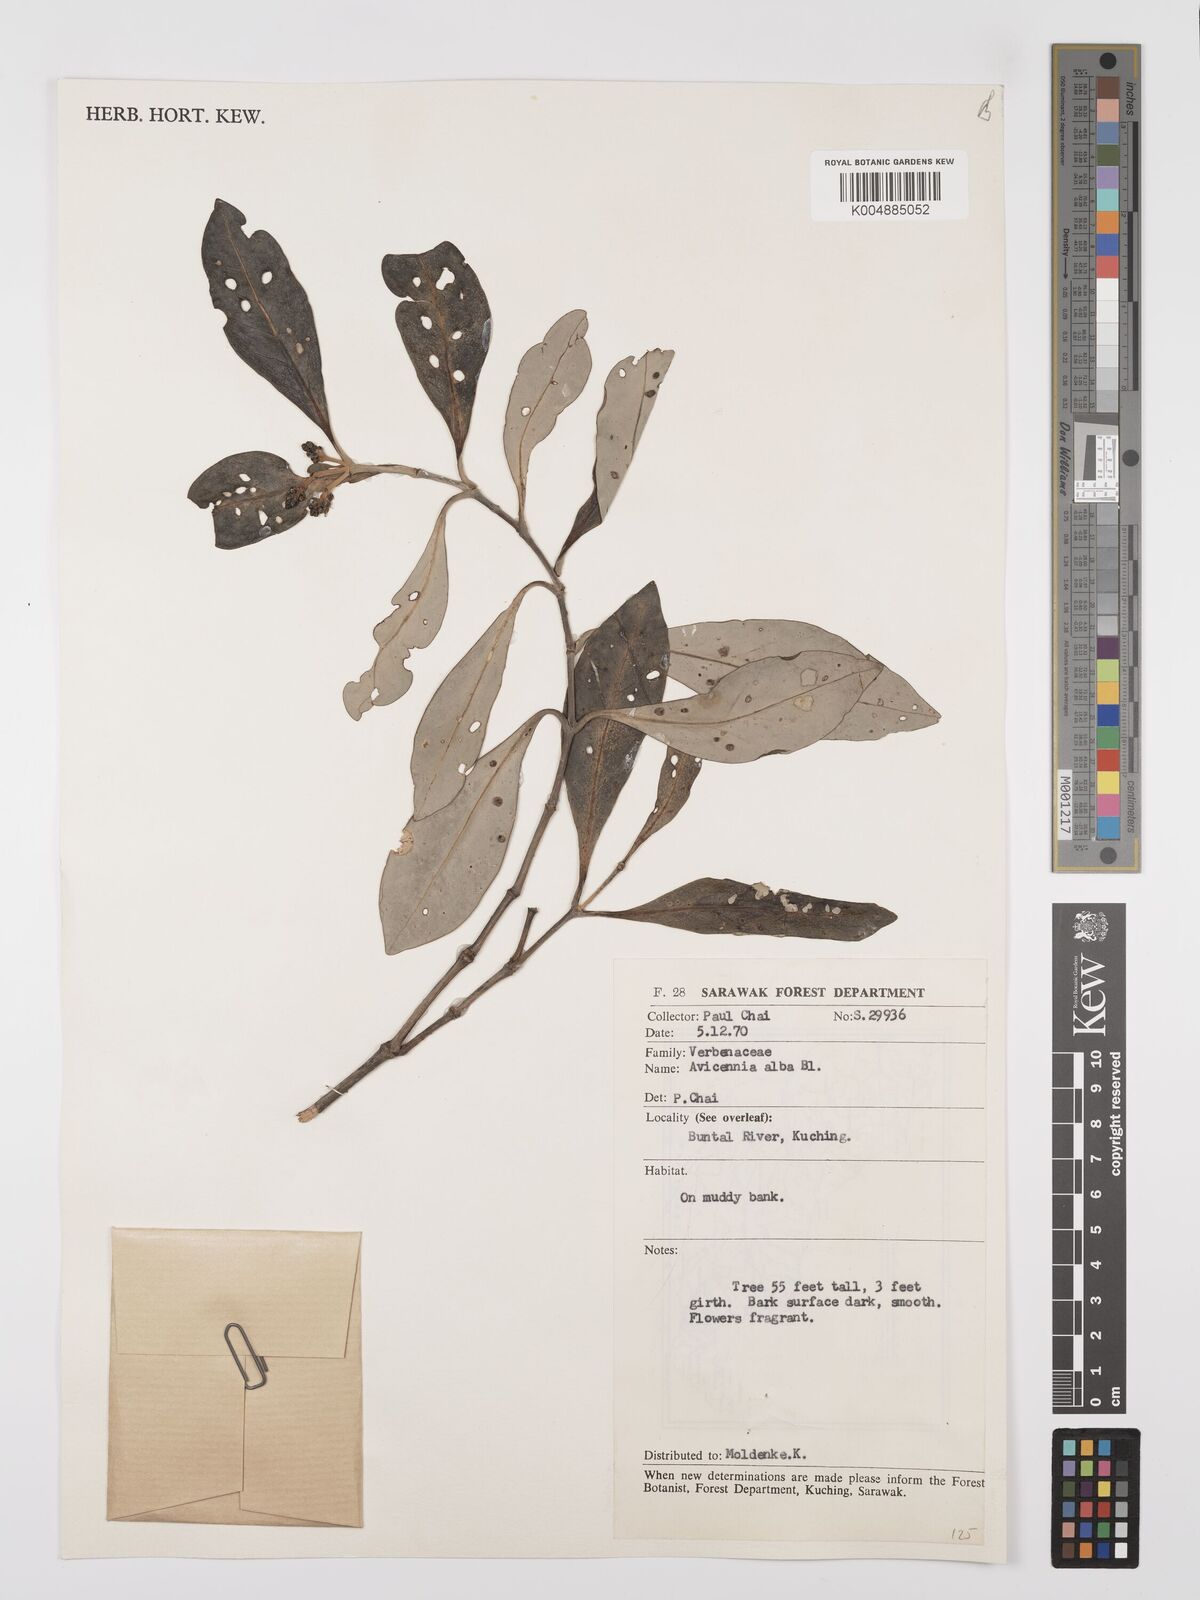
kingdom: Plantae
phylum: Tracheophyta
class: Magnoliopsida
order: Lamiales
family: Acanthaceae
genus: Avicennia
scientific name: Avicennia alba
